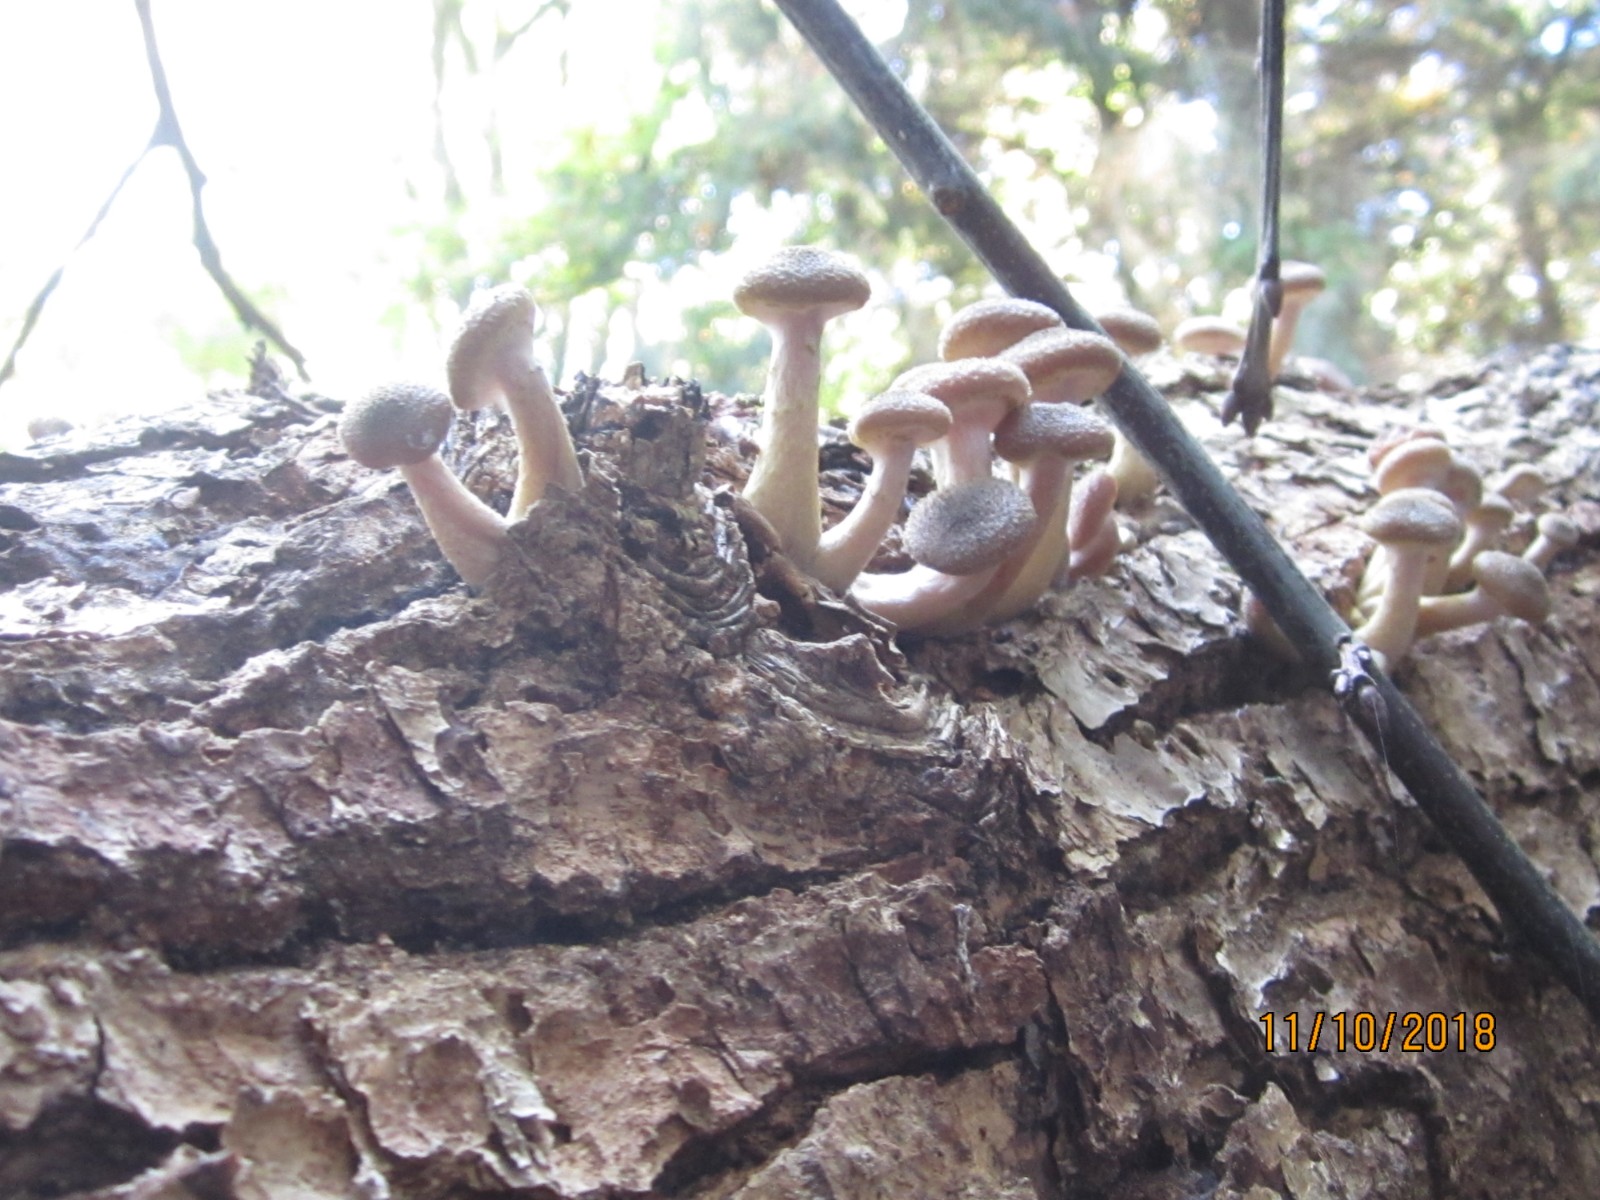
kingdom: Fungi
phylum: Basidiomycota
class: Agaricomycetes
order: Agaricales
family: Physalacriaceae
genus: Armillaria
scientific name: Armillaria lutea
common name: køllestokket honningsvamp
